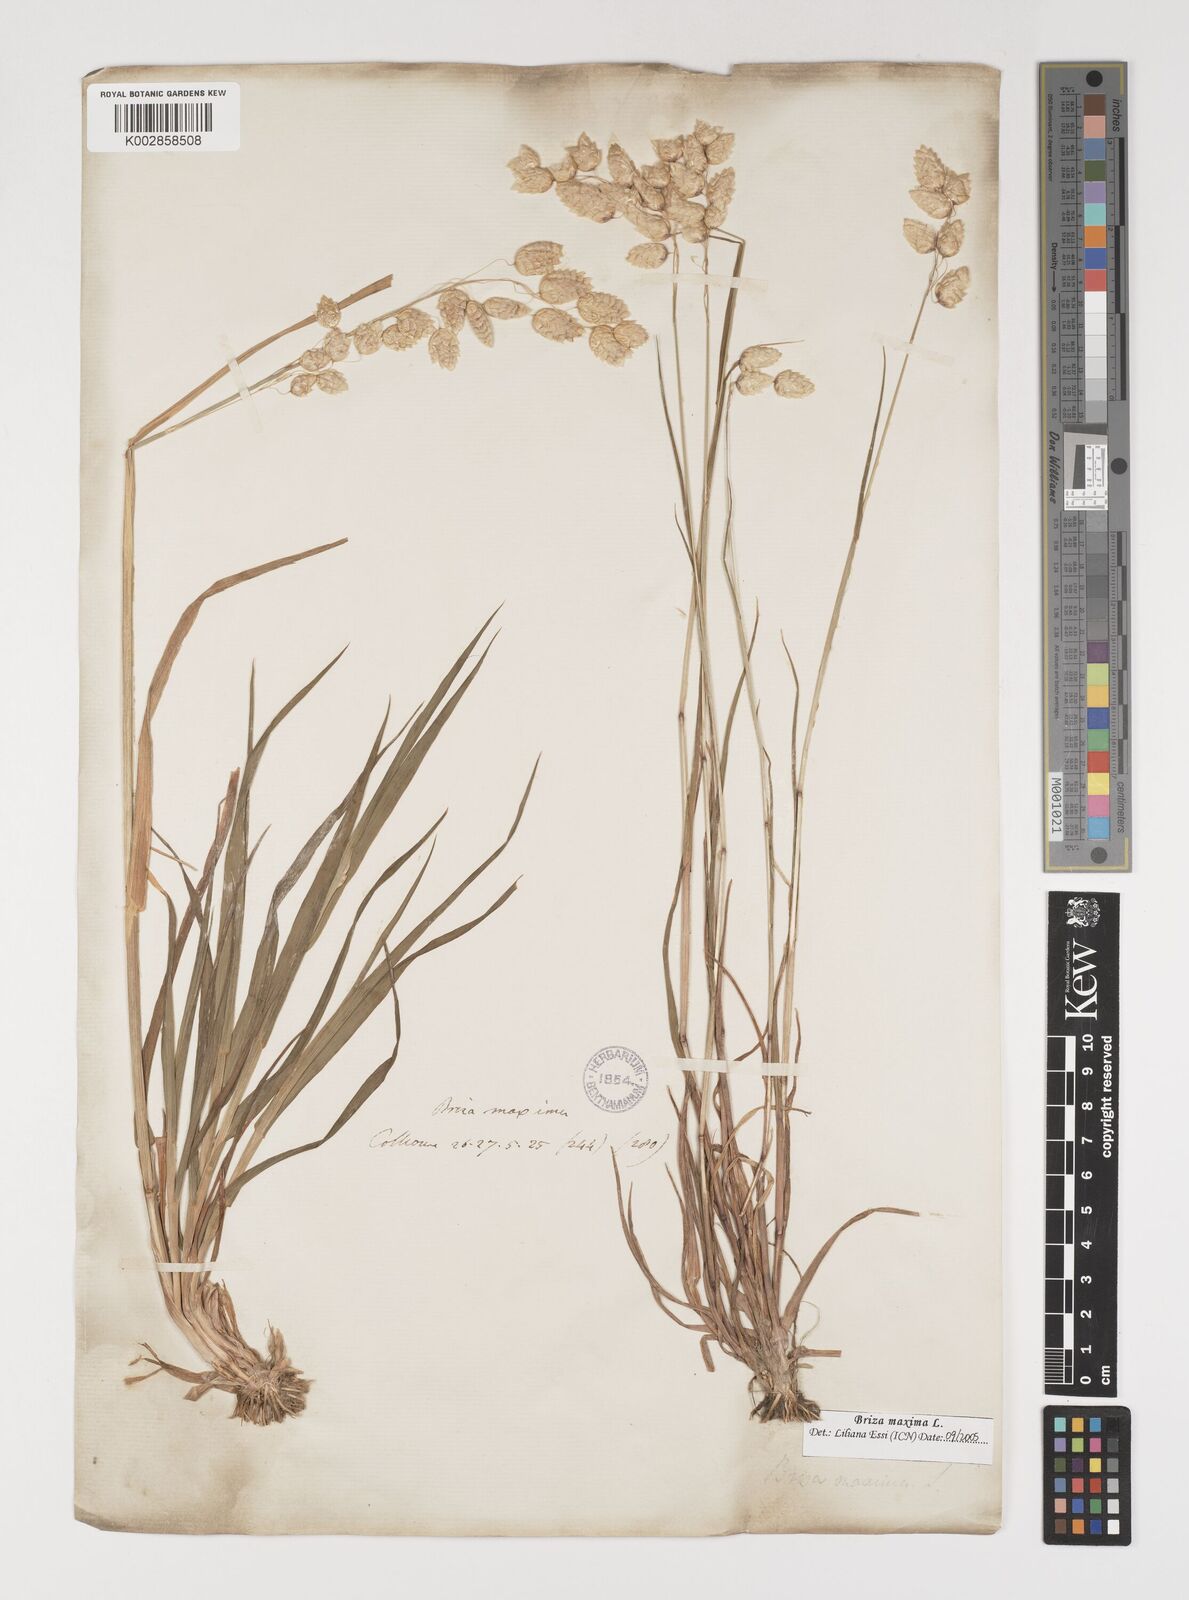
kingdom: Plantae
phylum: Tracheophyta
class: Liliopsida
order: Poales
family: Poaceae
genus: Briza
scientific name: Briza maxima
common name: Big quakinggrass
